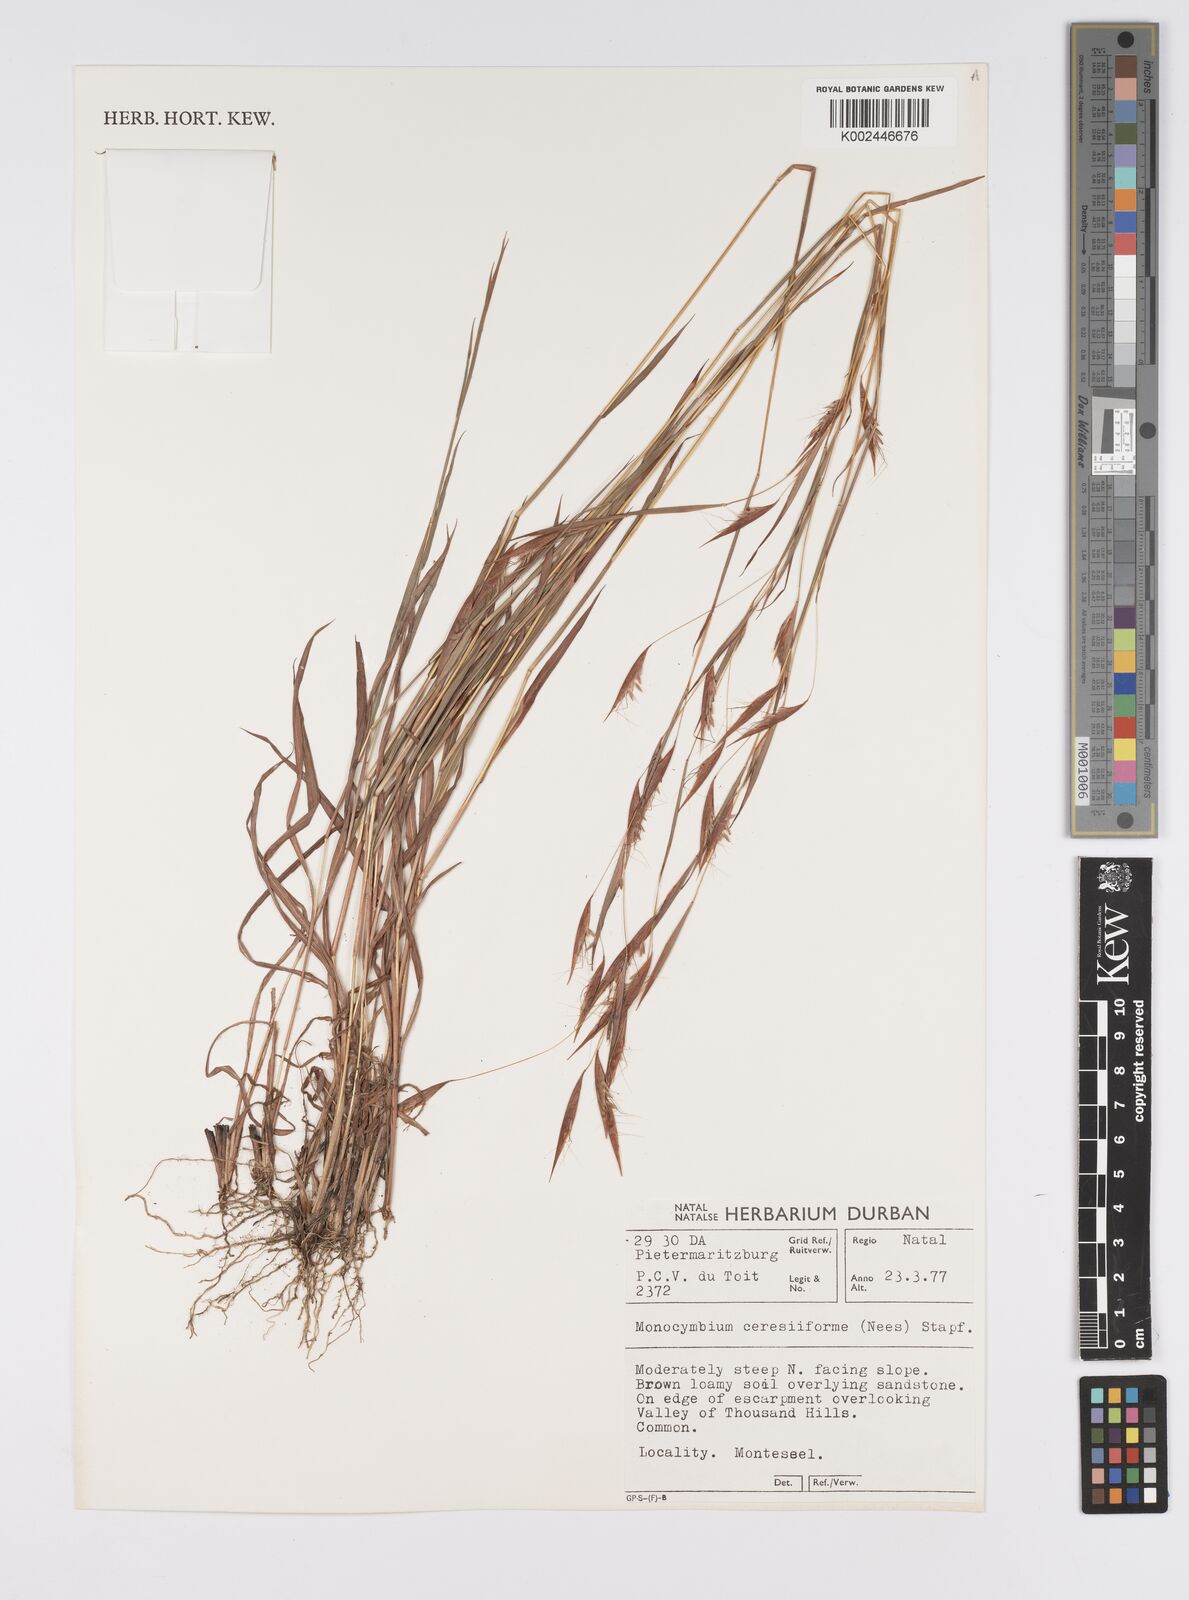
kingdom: Plantae
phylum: Tracheophyta
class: Liliopsida
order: Poales
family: Poaceae
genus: Monocymbium
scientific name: Monocymbium ceresiiforme
